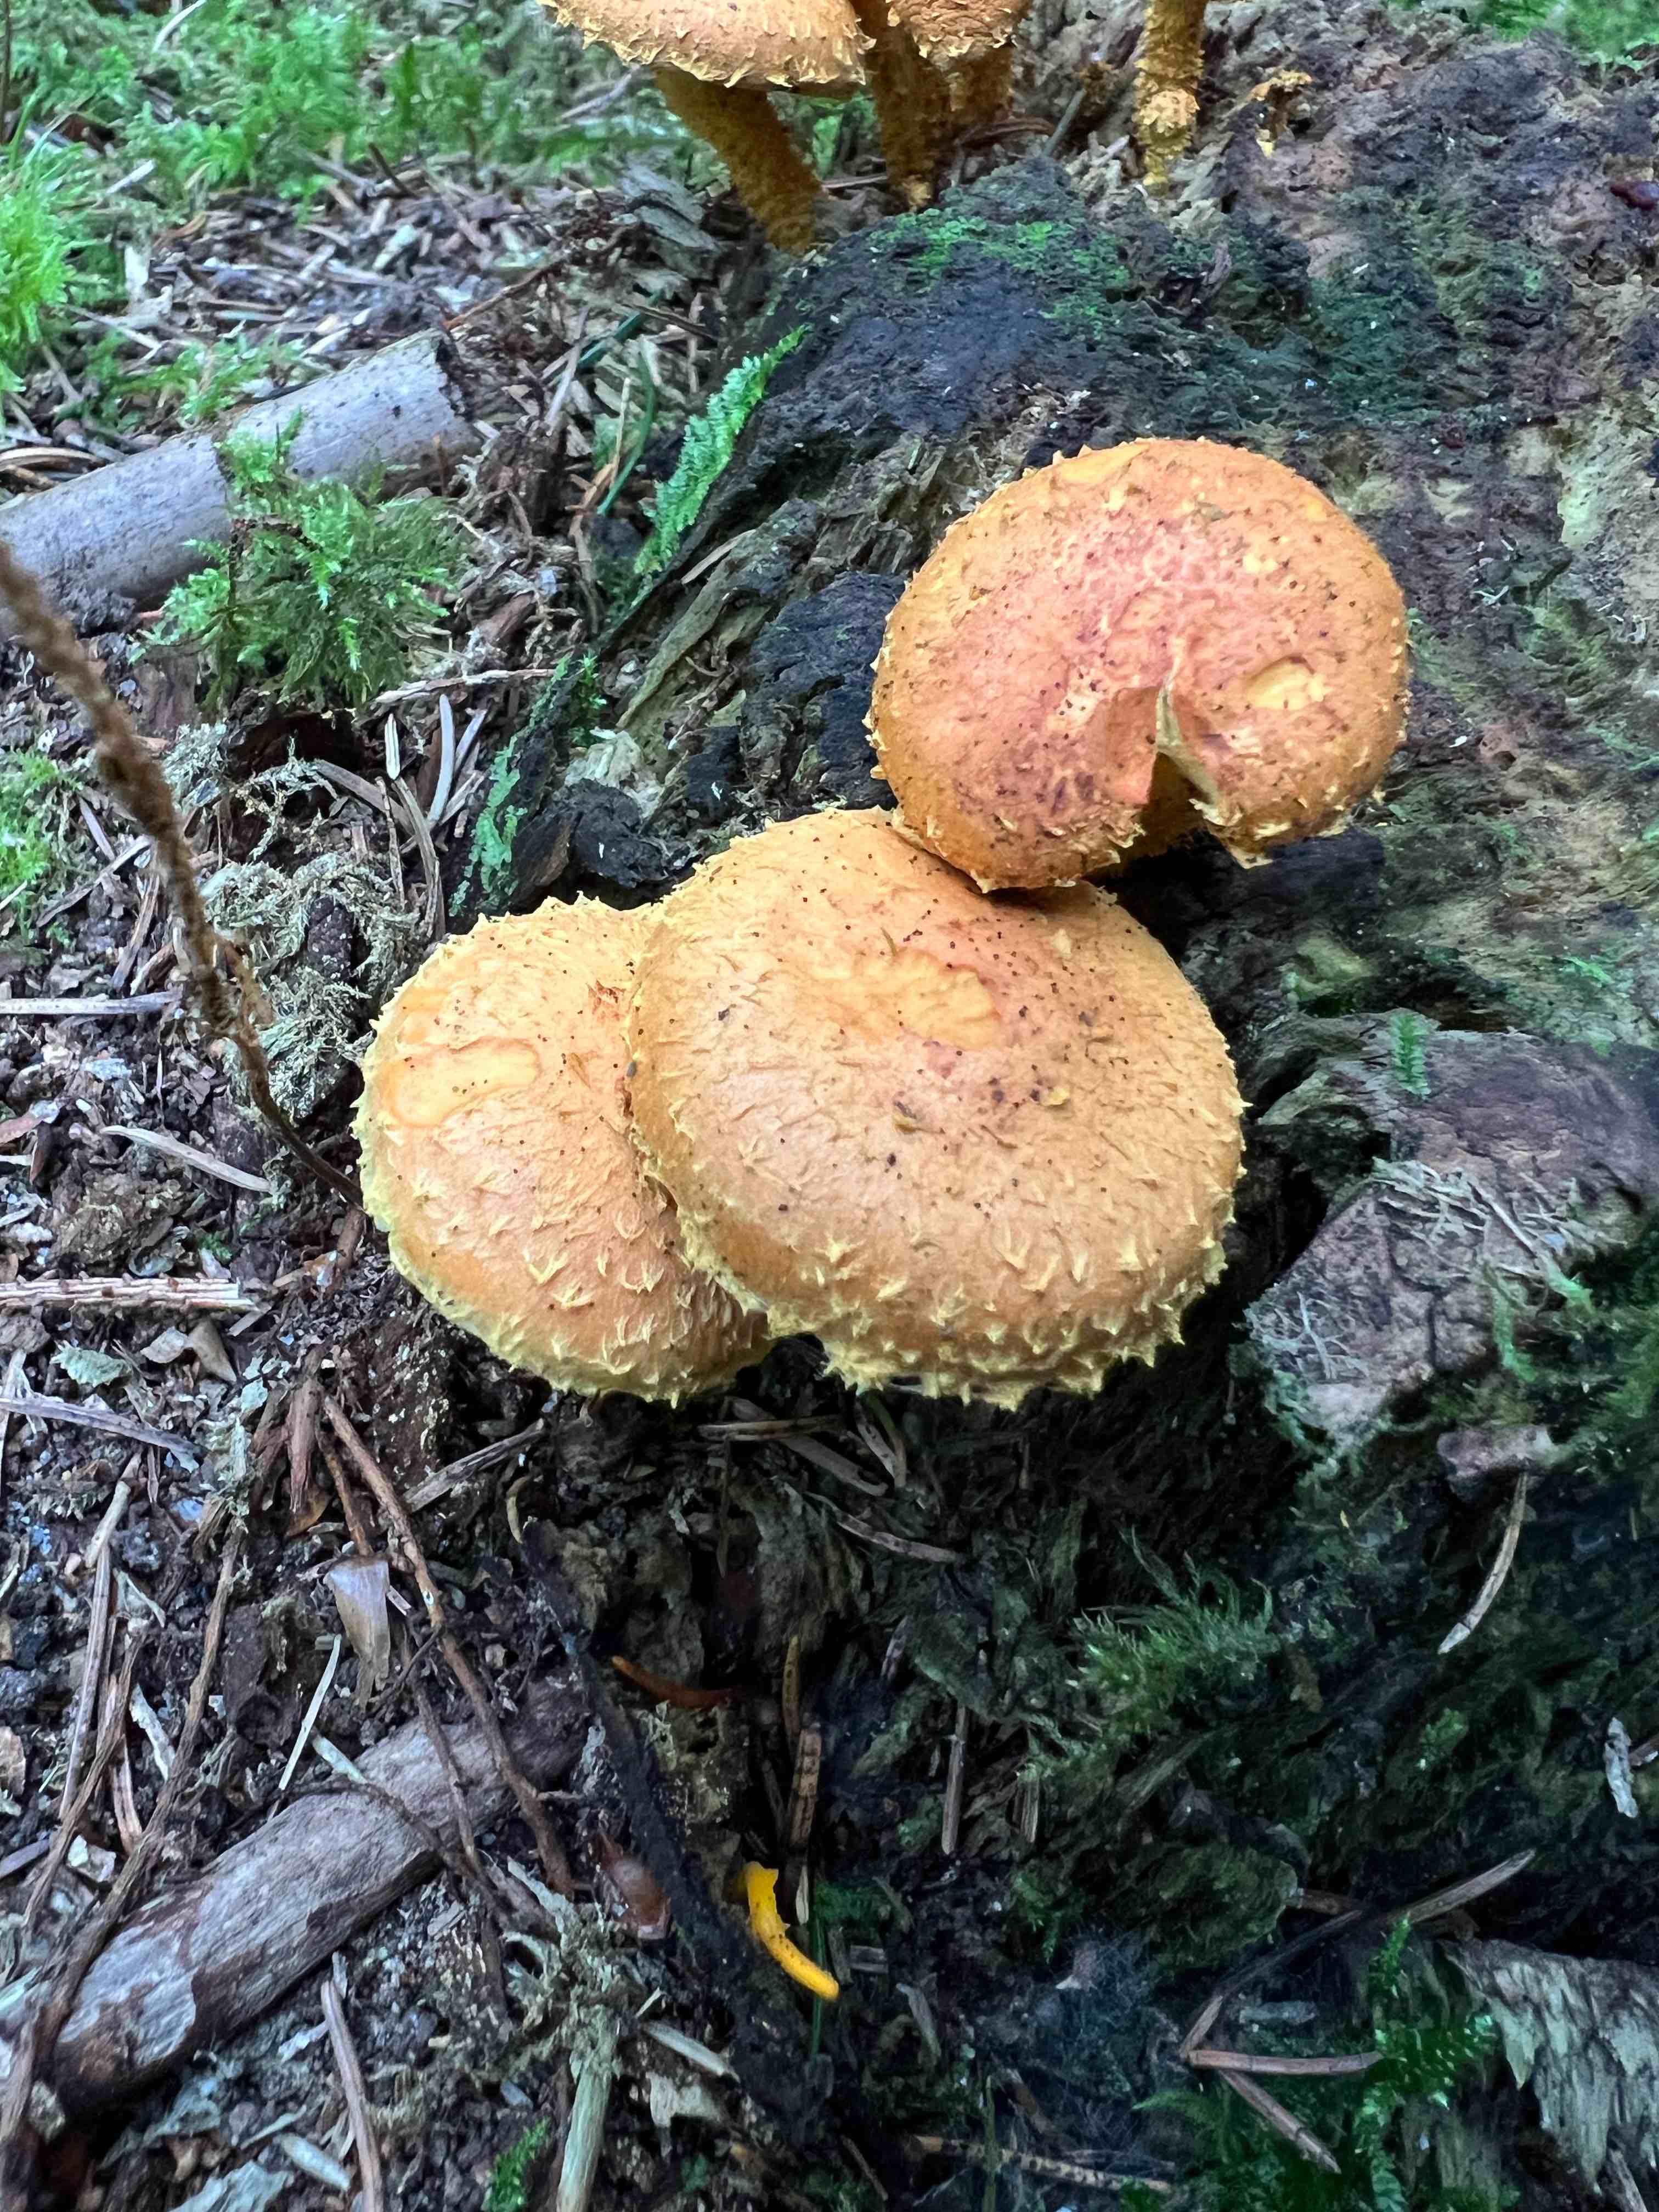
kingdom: Fungi
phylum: Basidiomycota
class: Agaricomycetes
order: Agaricales
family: Strophariaceae
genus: Pholiota
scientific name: Pholiota flammans
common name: flamme-skælhat
